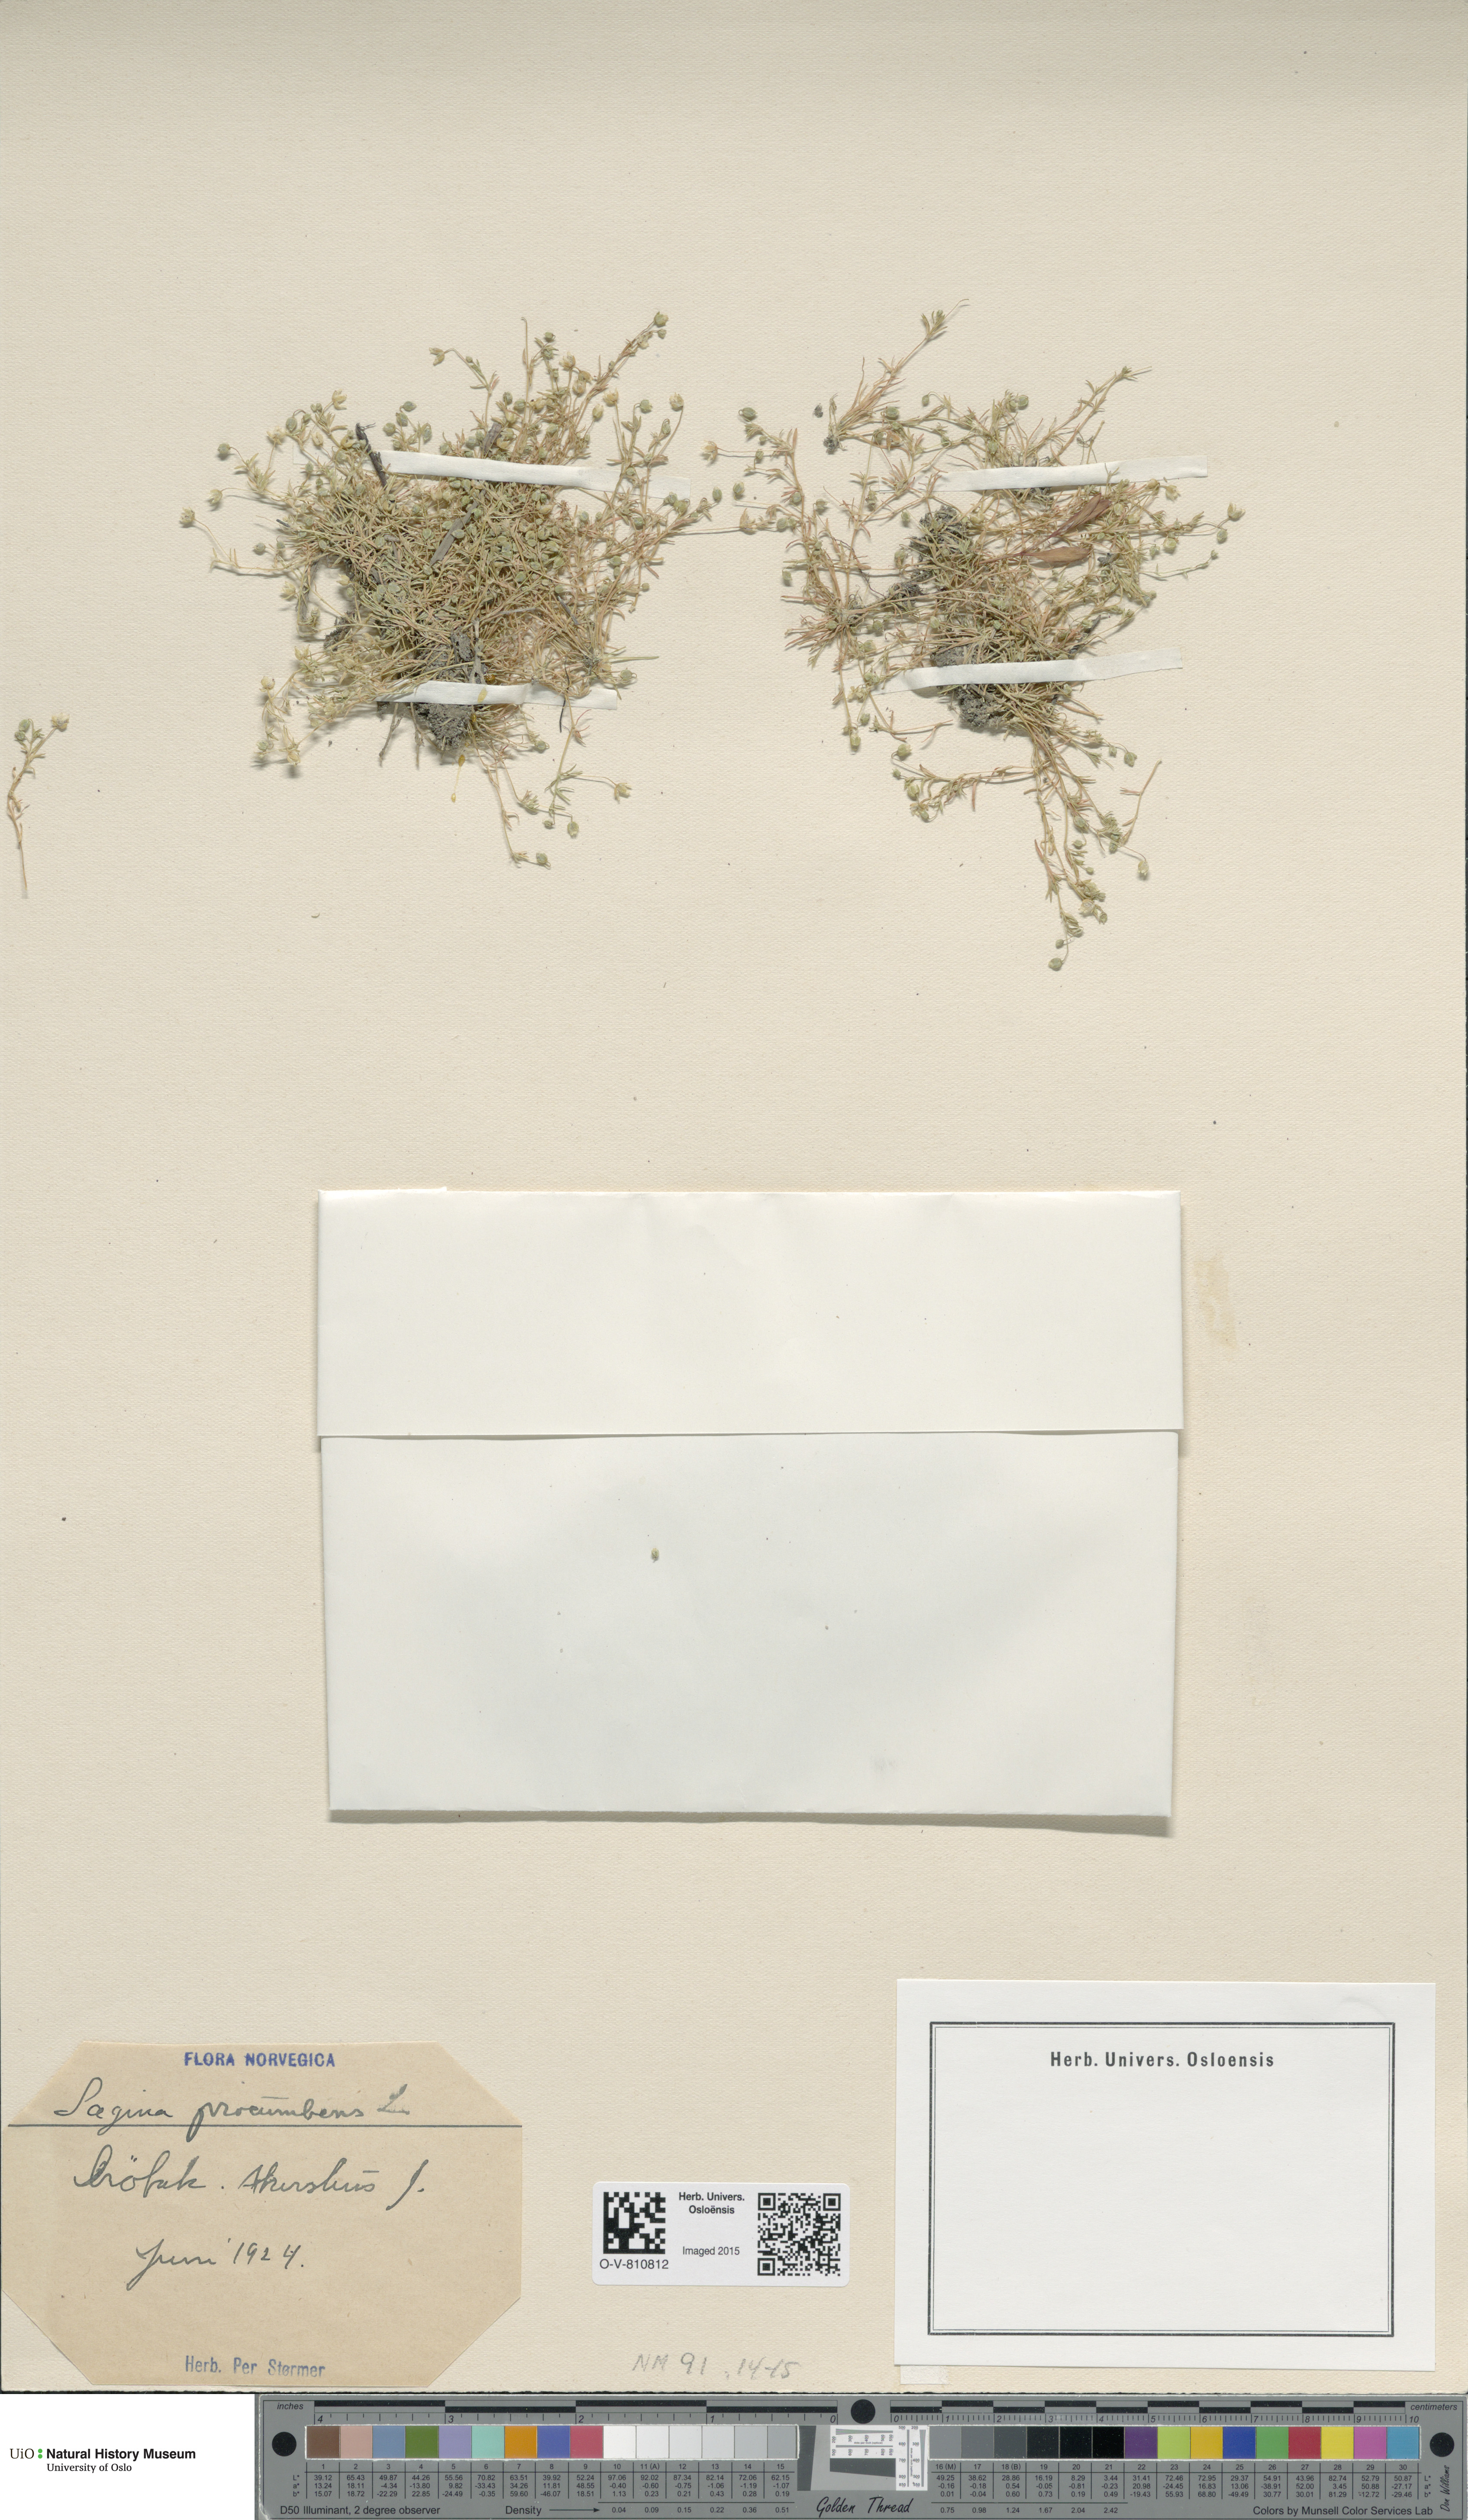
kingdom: Plantae
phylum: Tracheophyta
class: Magnoliopsida
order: Caryophyllales
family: Caryophyllaceae
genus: Sagina
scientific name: Sagina procumbens
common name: Procumbent pearlwort
